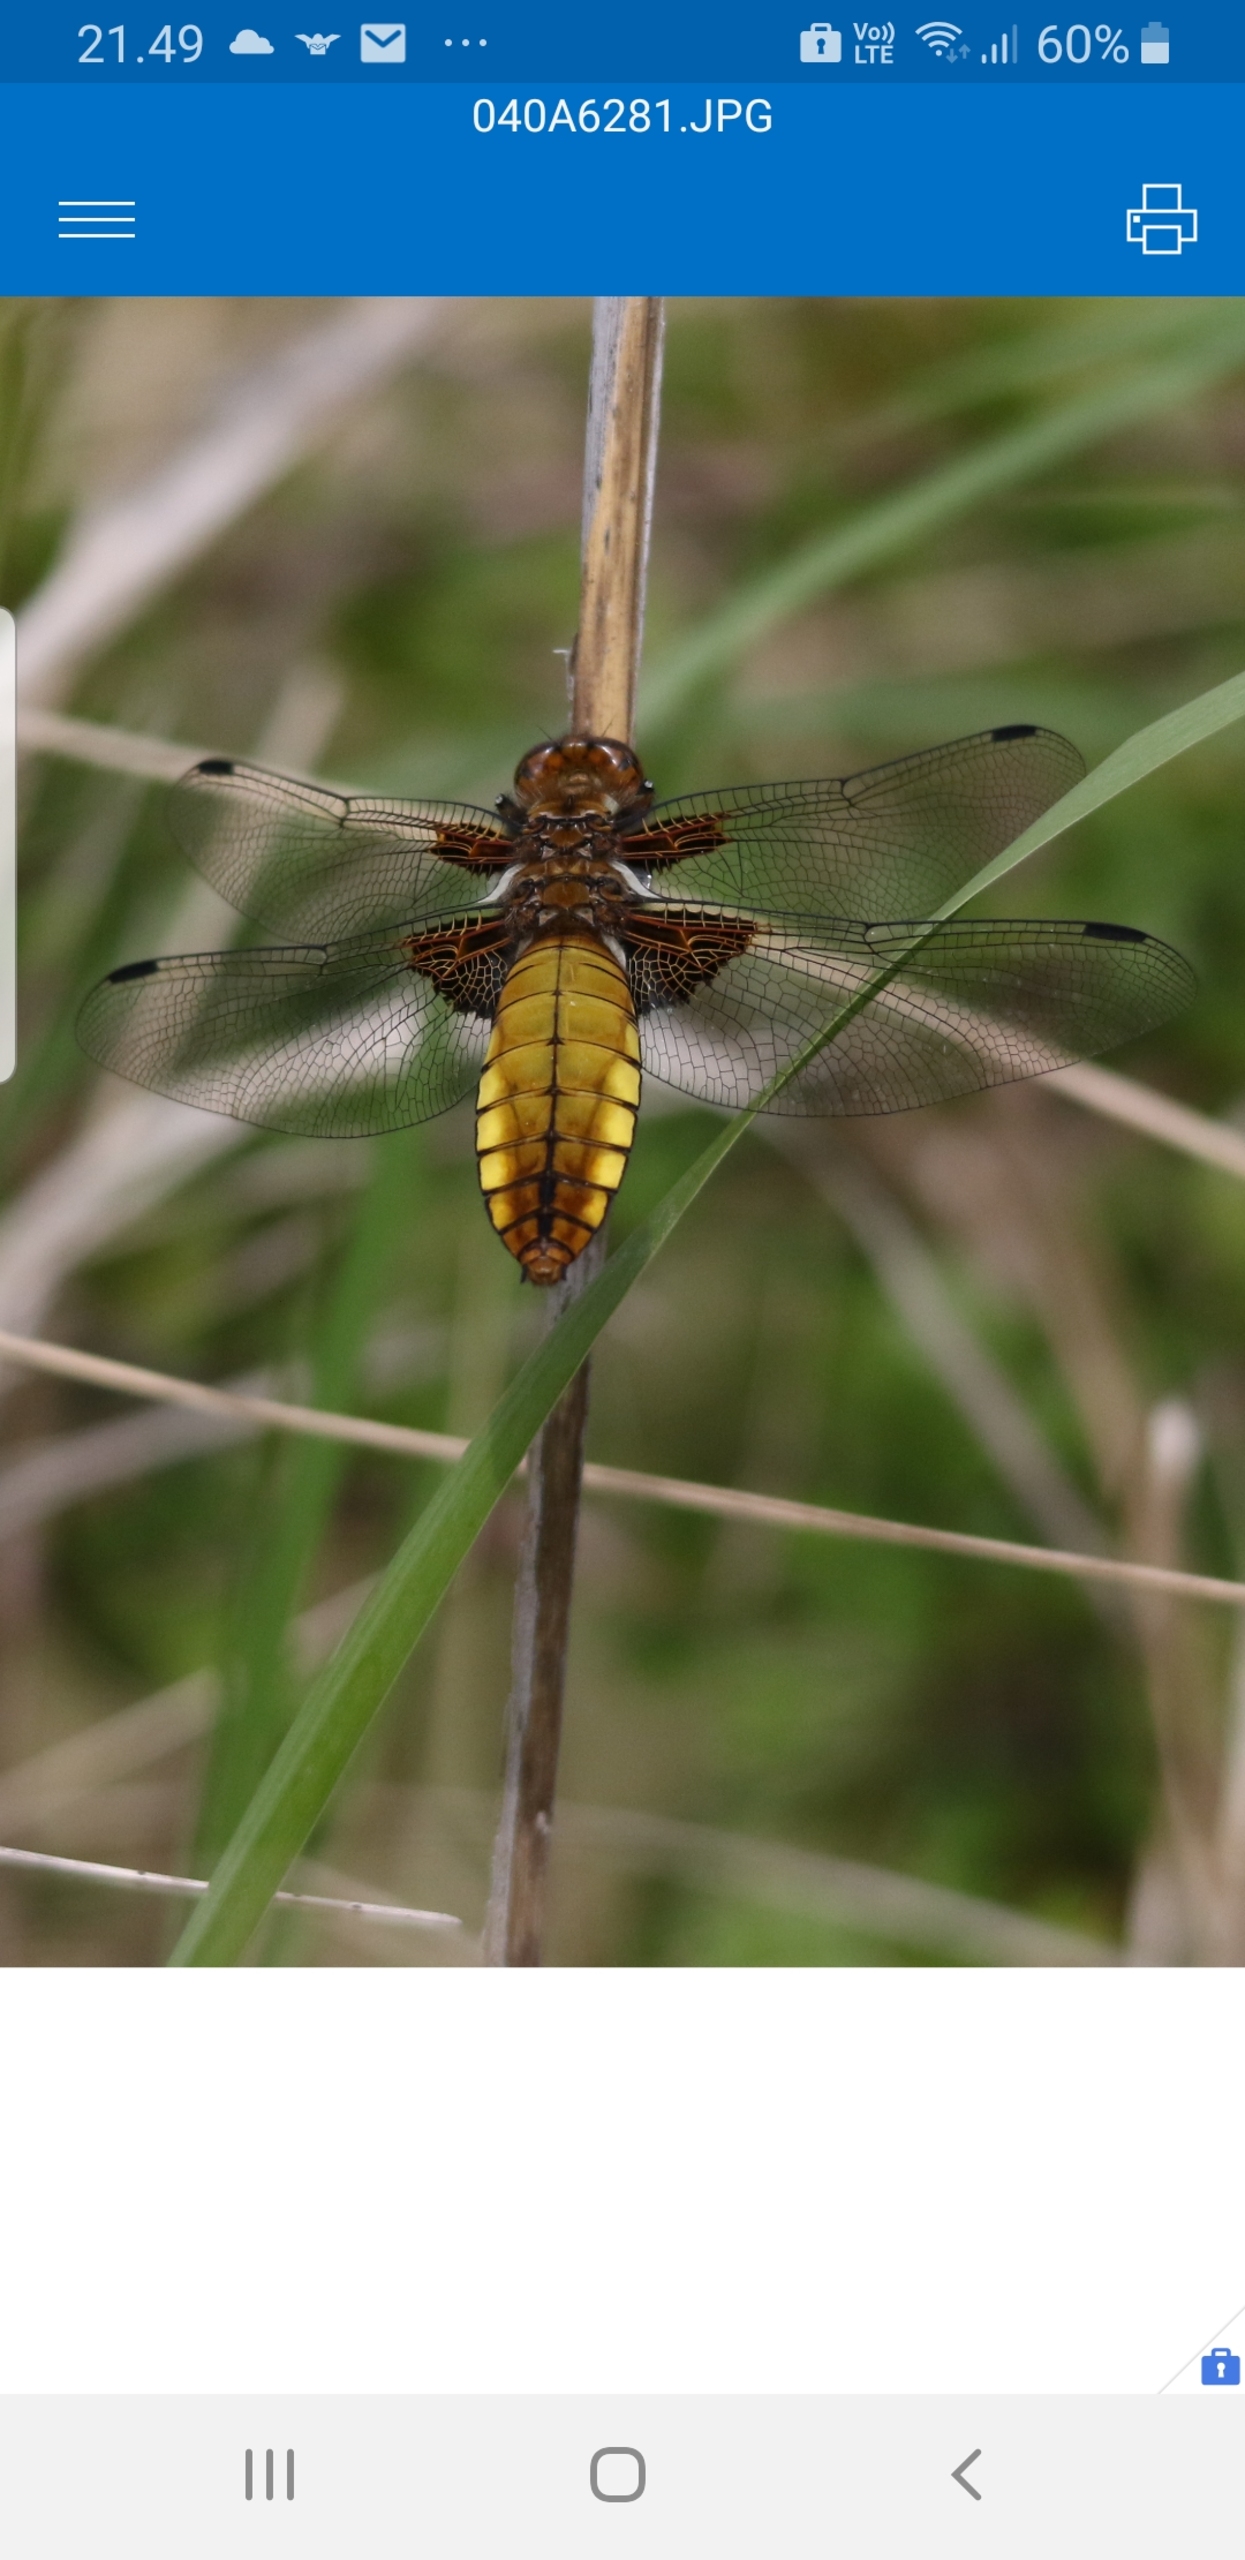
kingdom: Animalia
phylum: Arthropoda
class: Insecta
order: Odonata
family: Libellulidae
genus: Libellula
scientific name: Libellula depressa
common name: Blå libel
